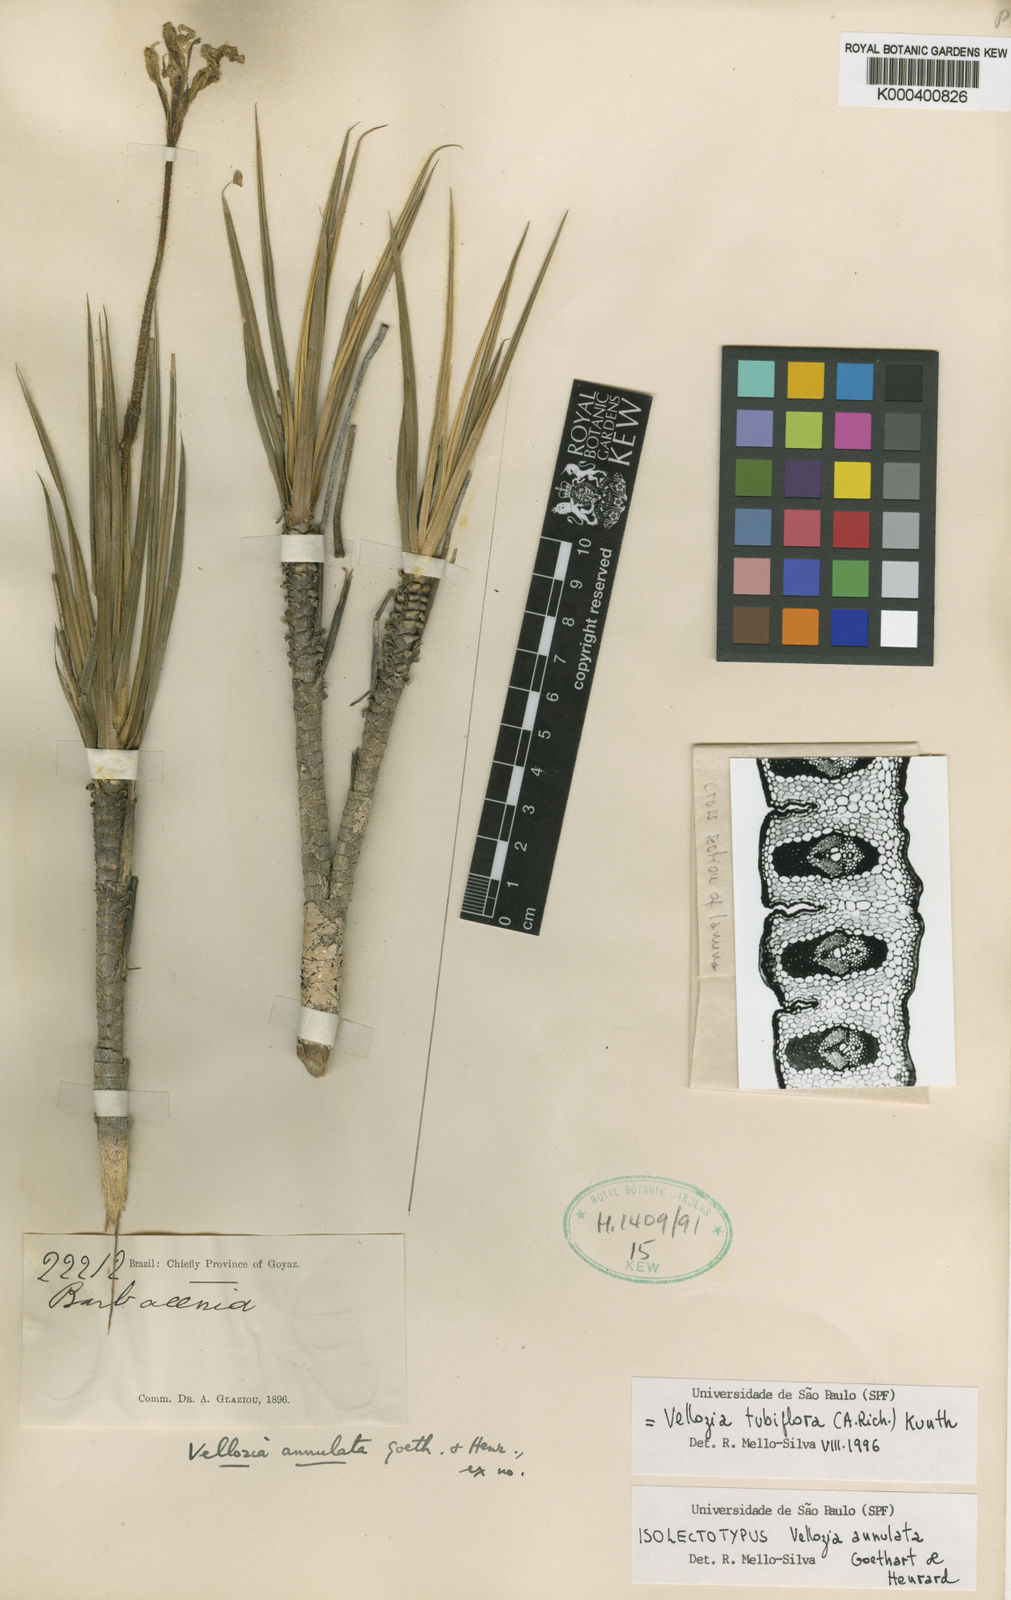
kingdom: Plantae
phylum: Tracheophyta
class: Liliopsida
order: Pandanales
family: Velloziaceae
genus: Vellozia
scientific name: Vellozia tubiflora
